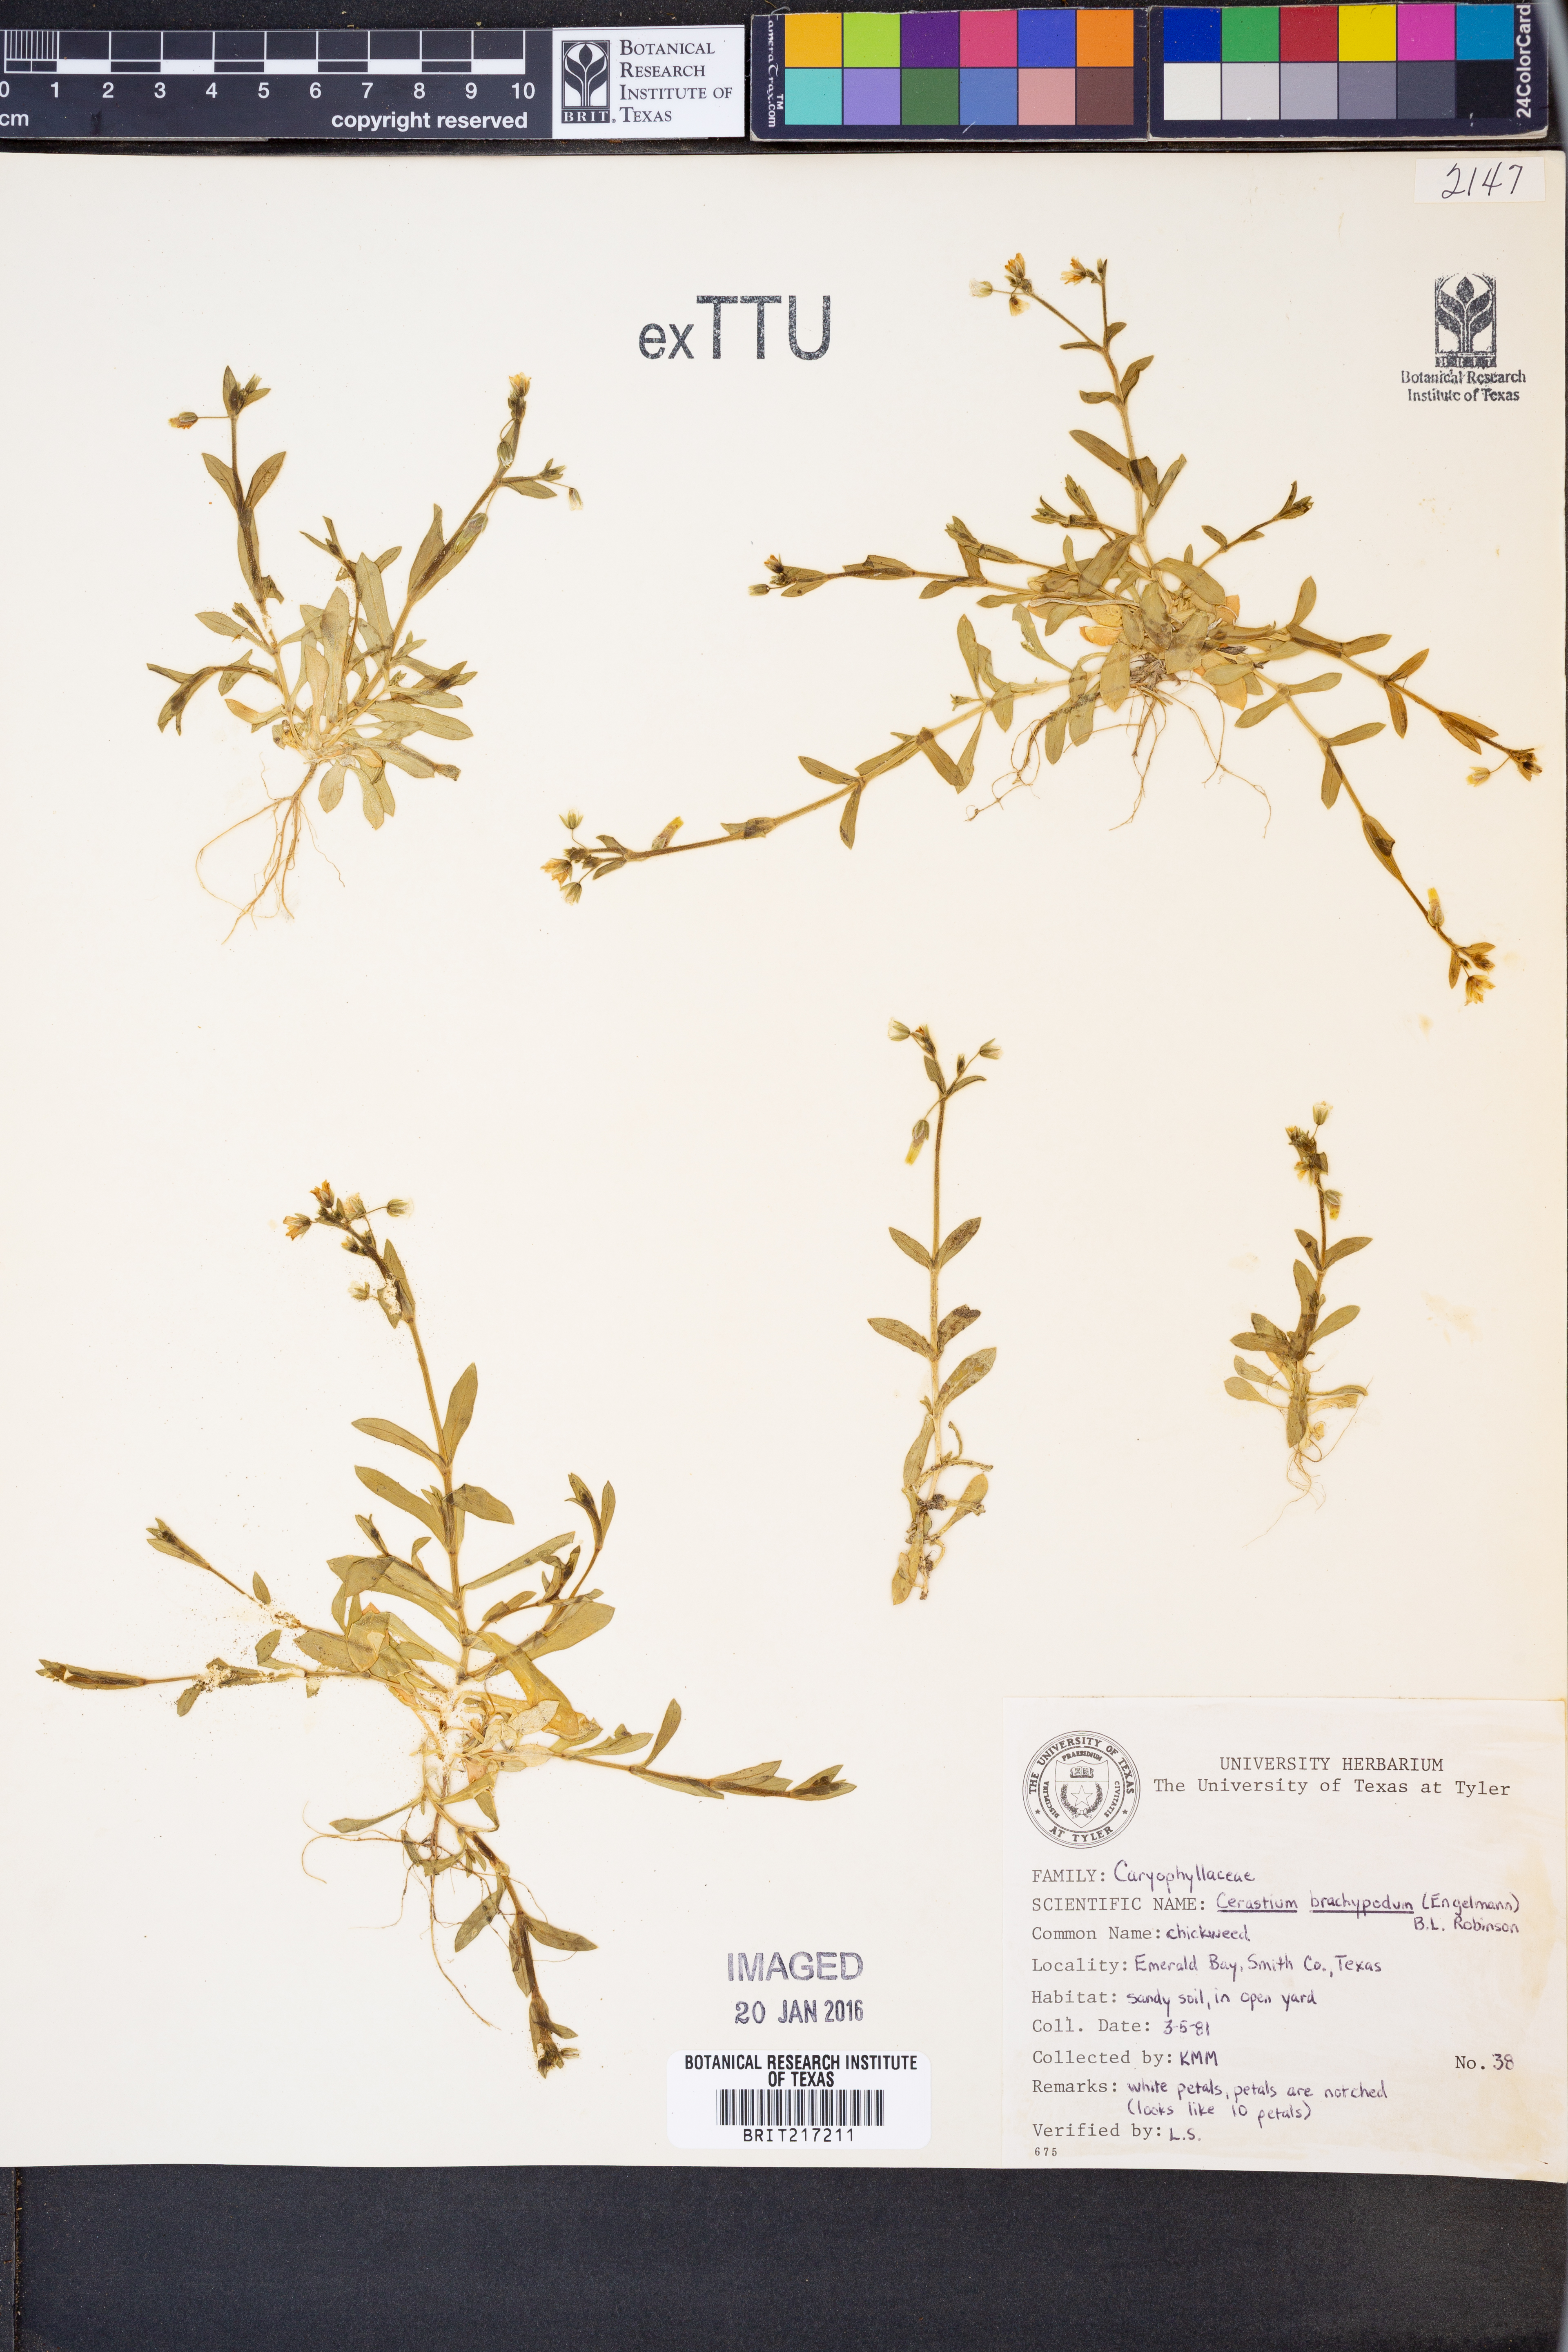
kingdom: Plantae
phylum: Tracheophyta
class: Magnoliopsida
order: Caryophyllales
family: Caryophyllaceae
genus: Cerastium
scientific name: Cerastium brachypodum
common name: Short-pedicelled nodding chickweed
